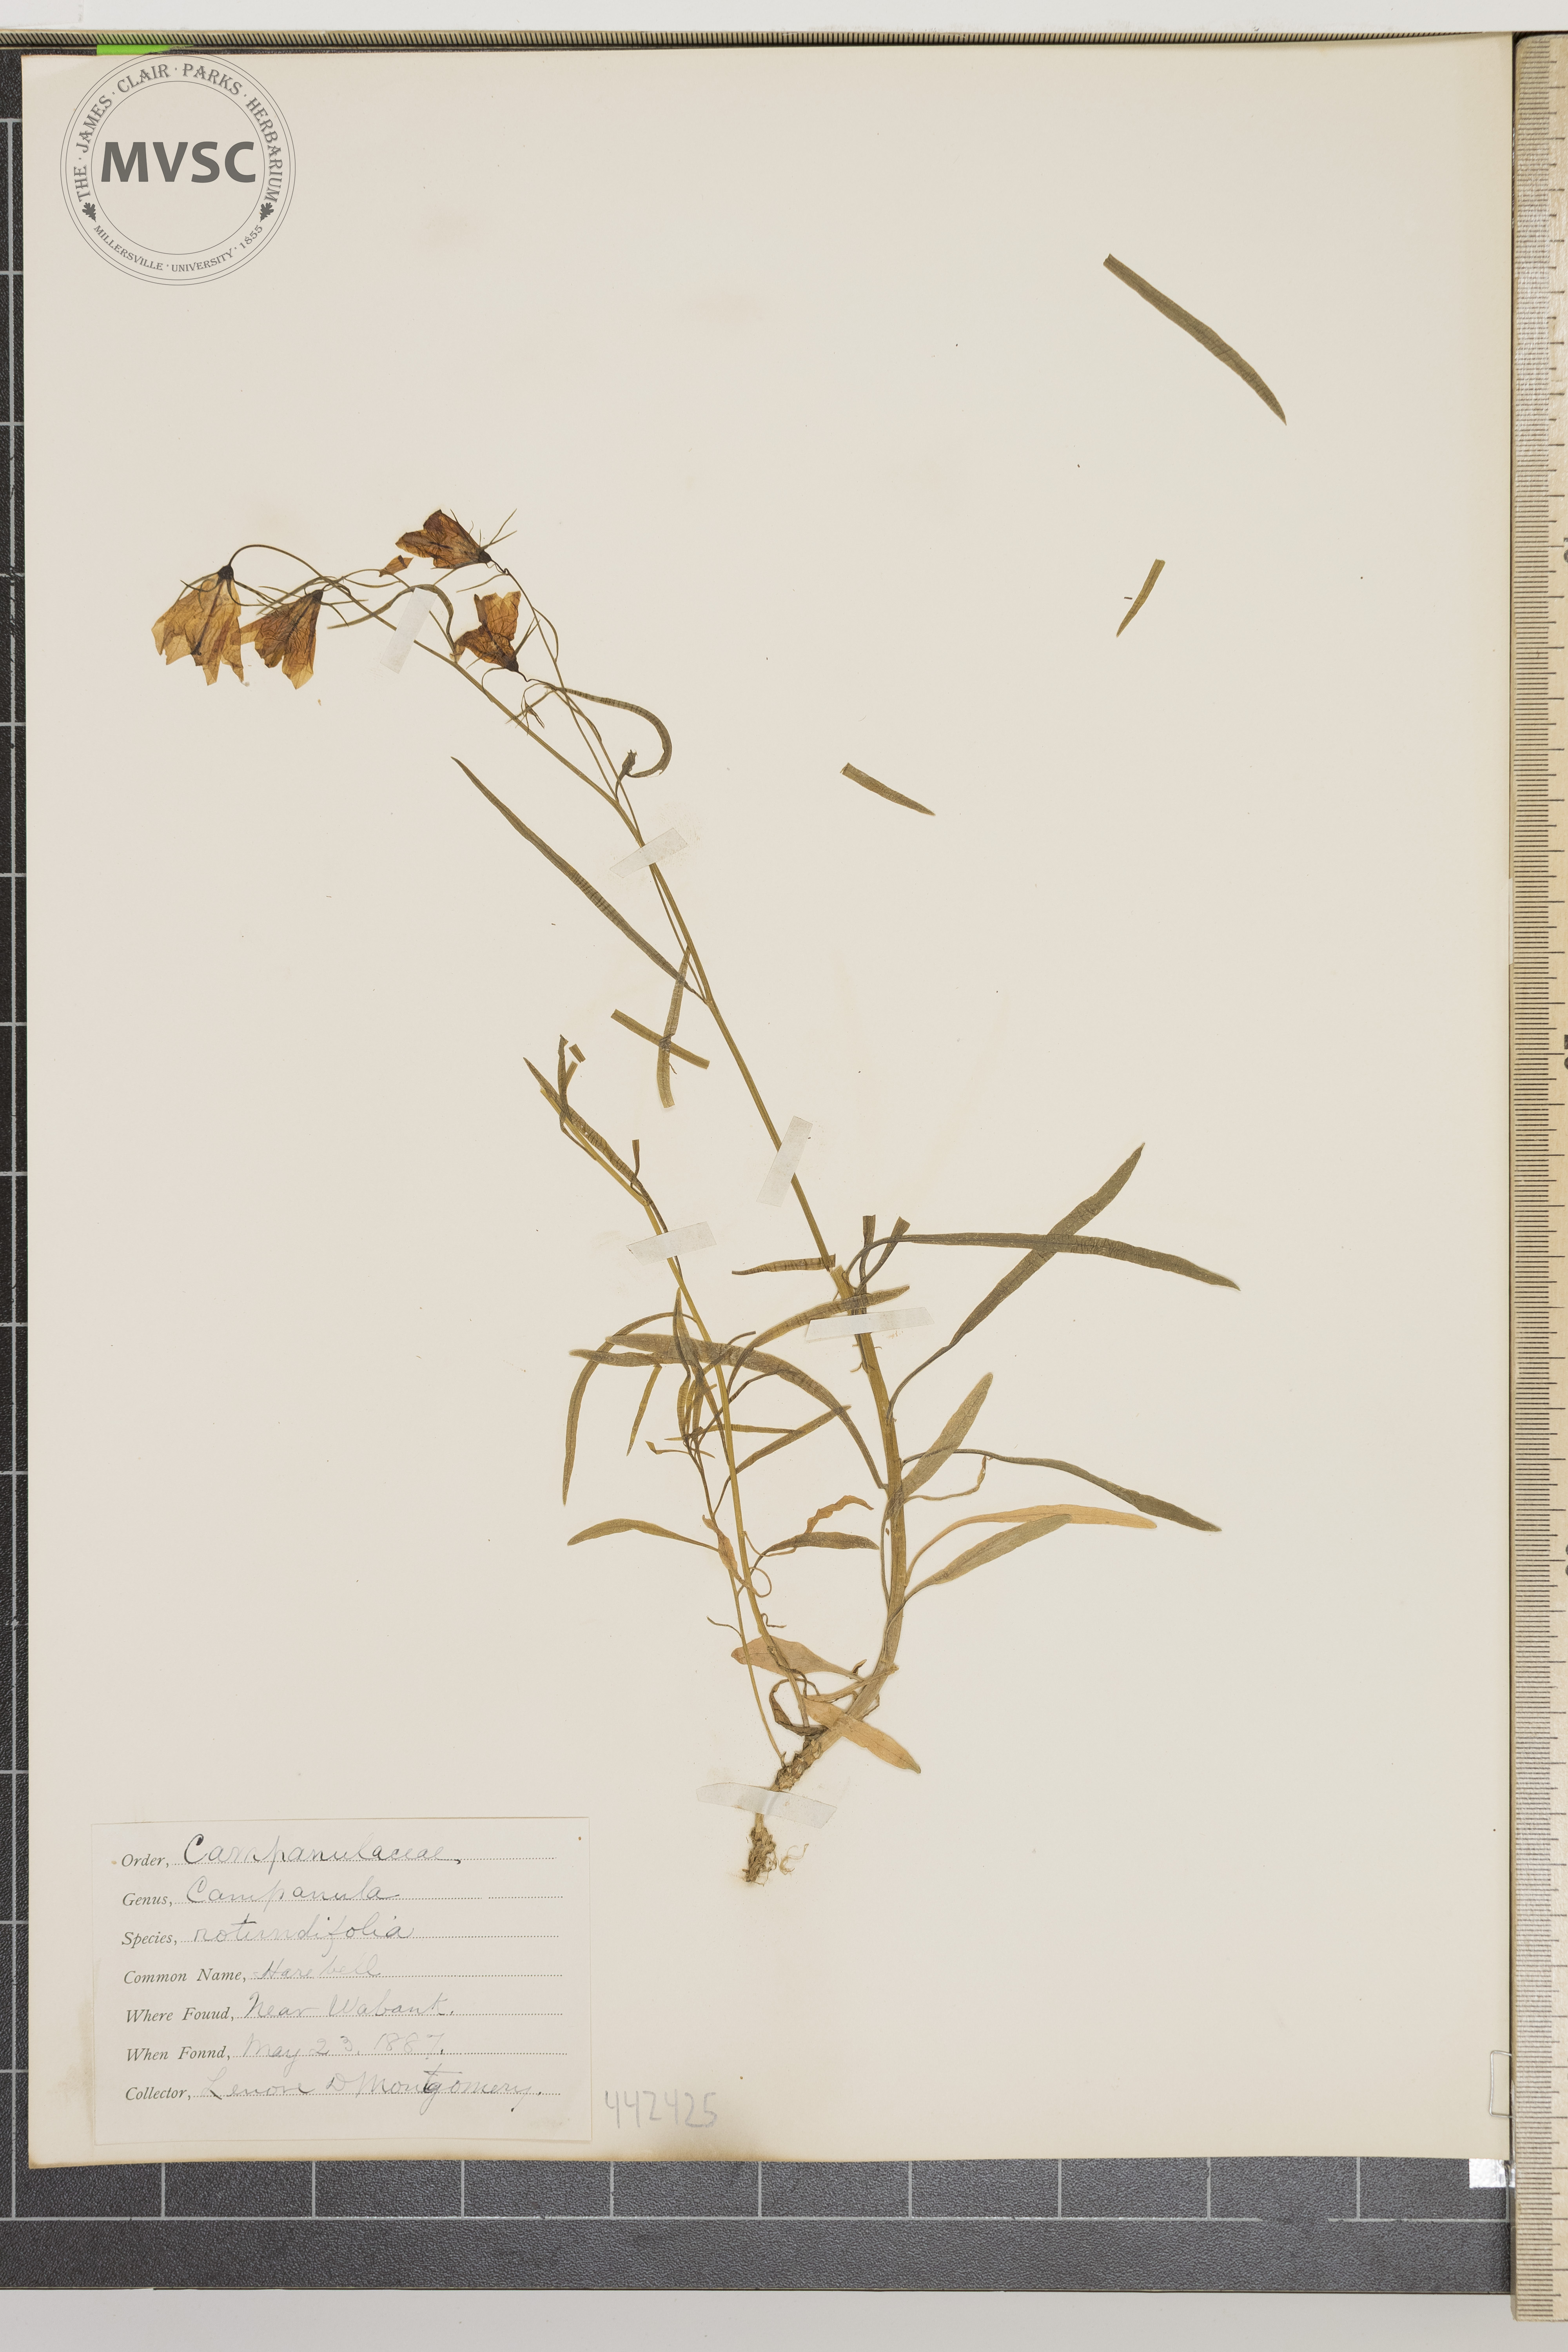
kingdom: Plantae
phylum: Tracheophyta
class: Magnoliopsida
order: Asterales
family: Campanulaceae
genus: Campanula
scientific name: Campanula rotundifolia
